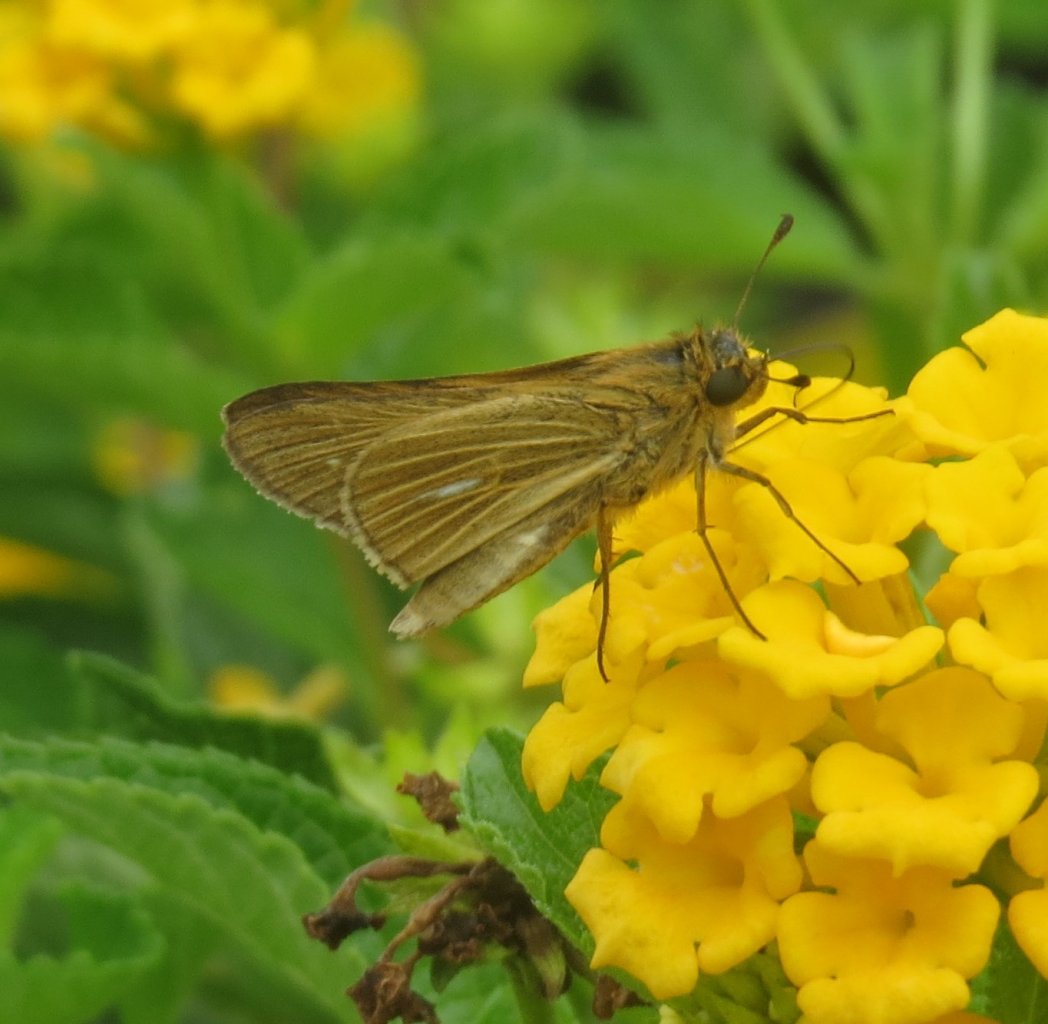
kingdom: Animalia
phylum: Arthropoda
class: Insecta
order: Lepidoptera
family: Hesperiidae
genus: Panoquina
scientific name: Panoquina panoquin
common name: Salt Marsh Skipper
